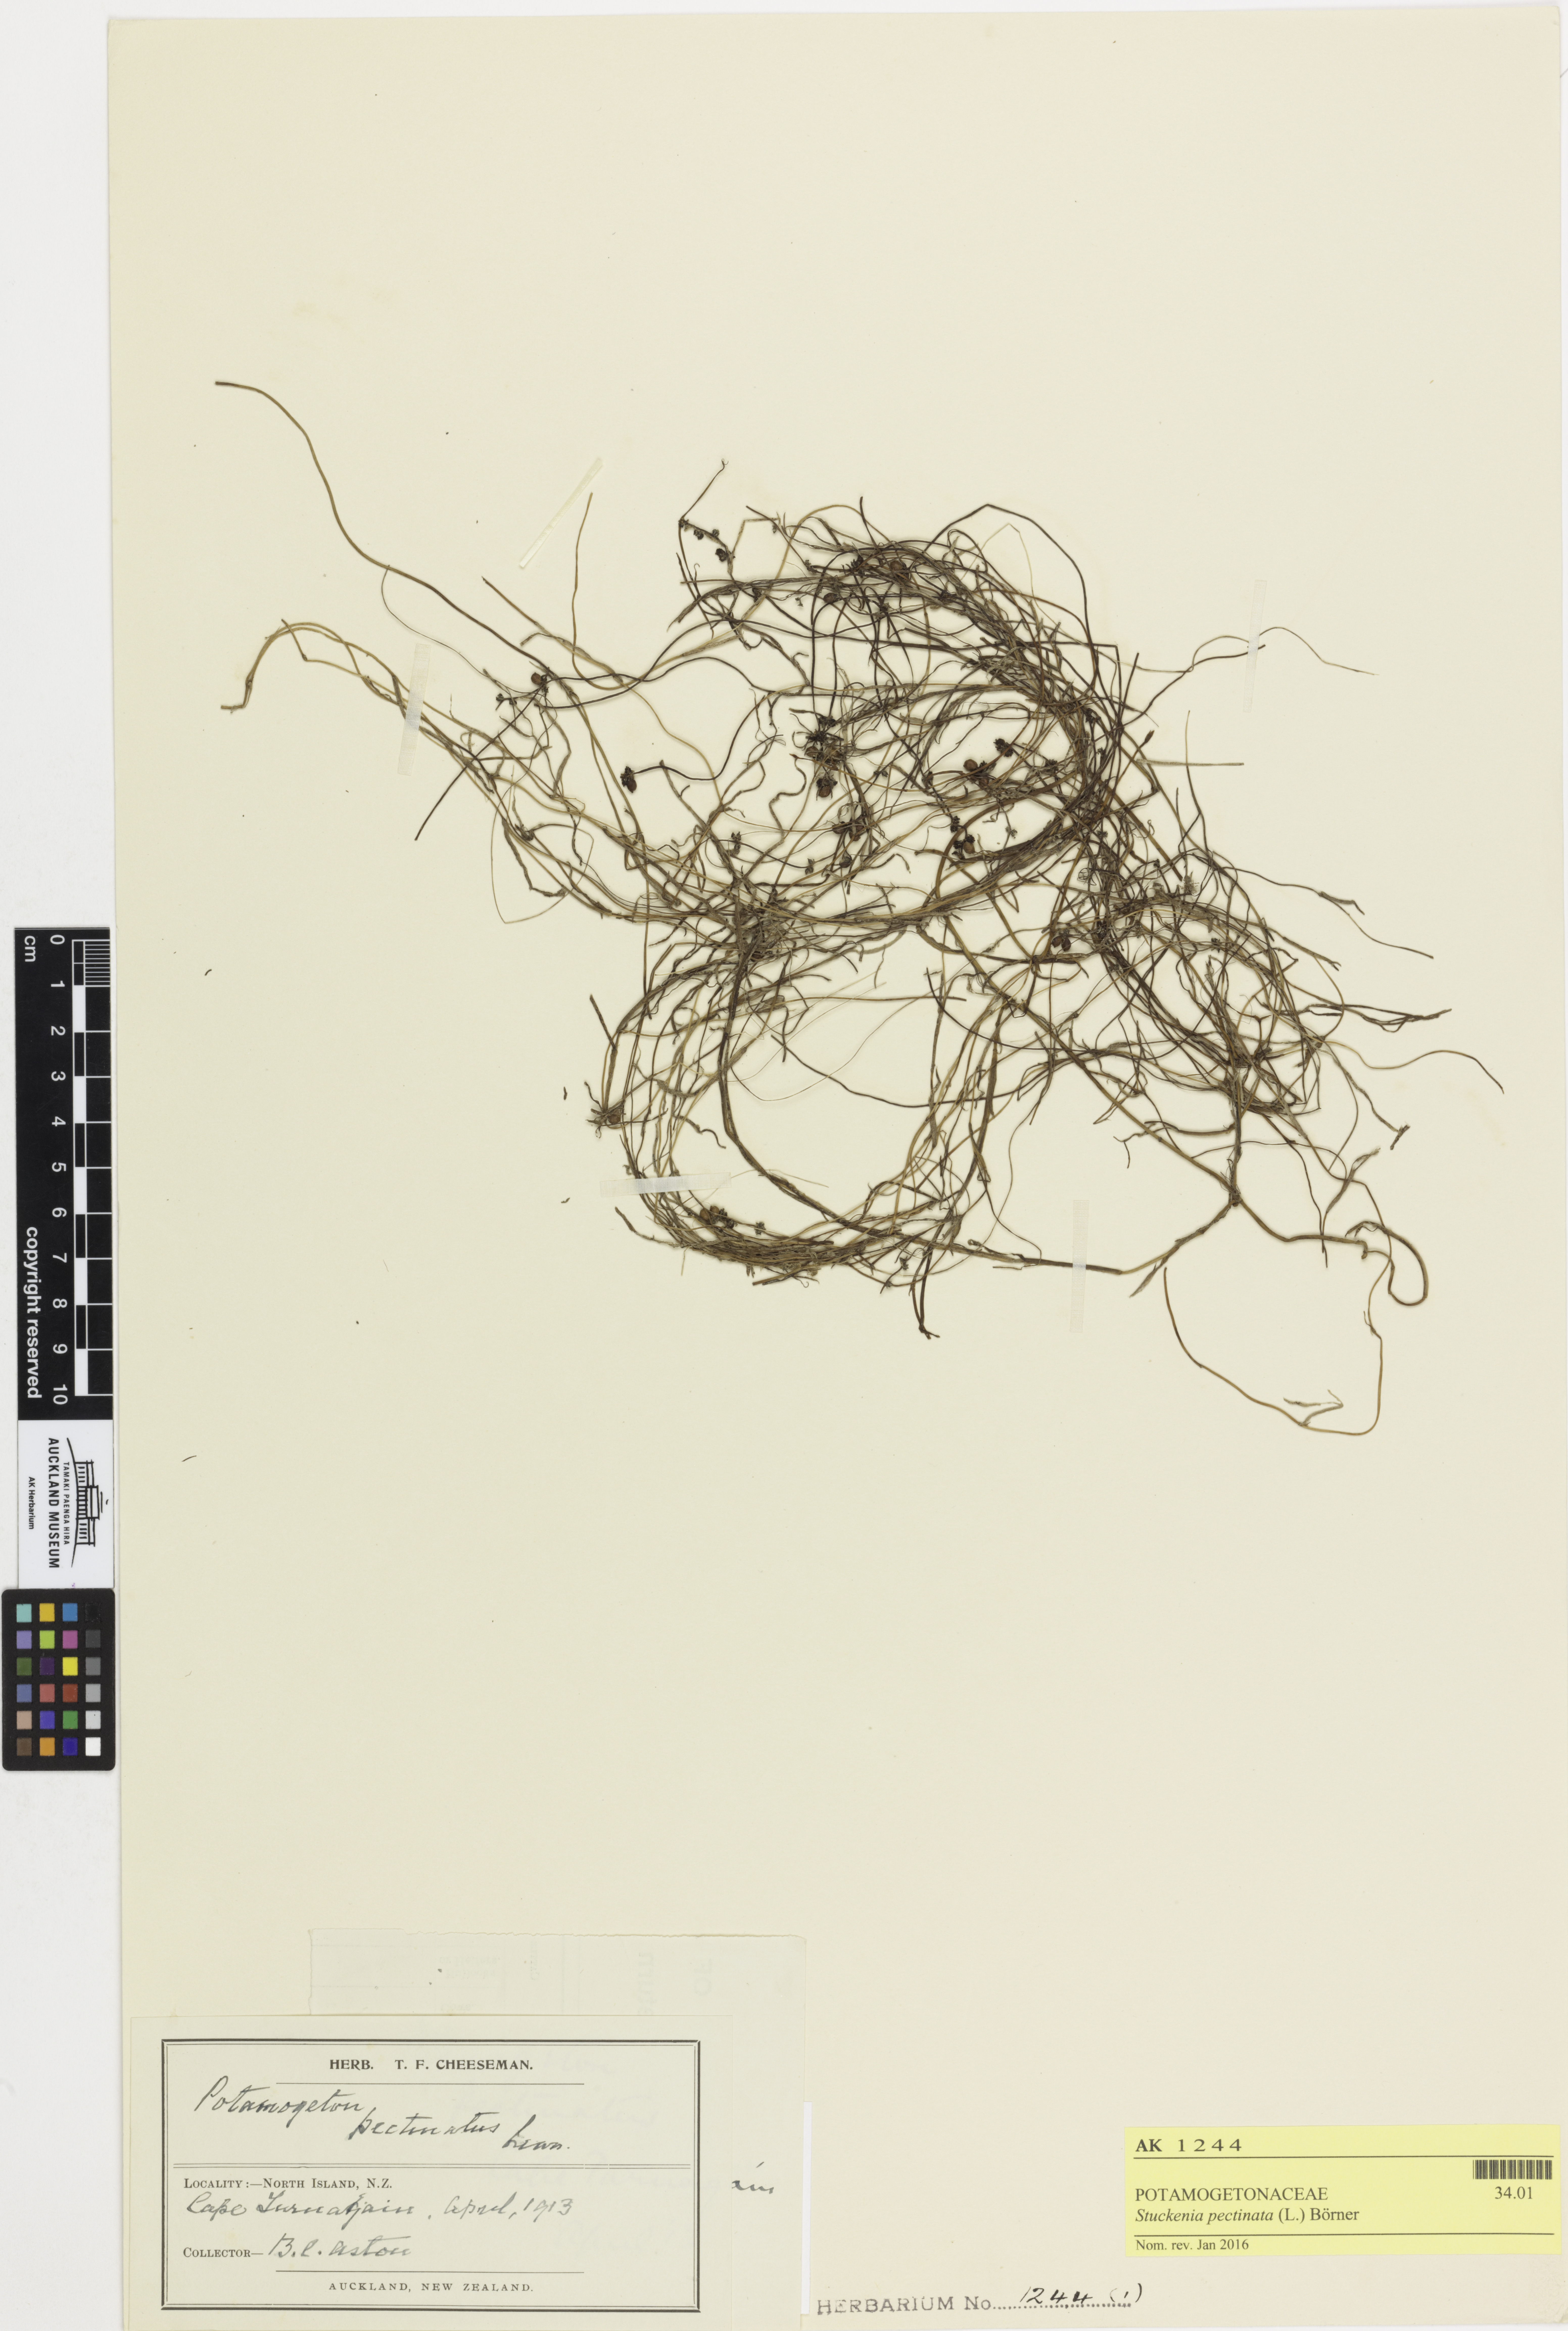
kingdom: Plantae
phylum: Tracheophyta
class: Liliopsida
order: Alismatales
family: Potamogetonaceae
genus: Stuckenia
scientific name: Stuckenia pectinata
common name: Sago pondweed
